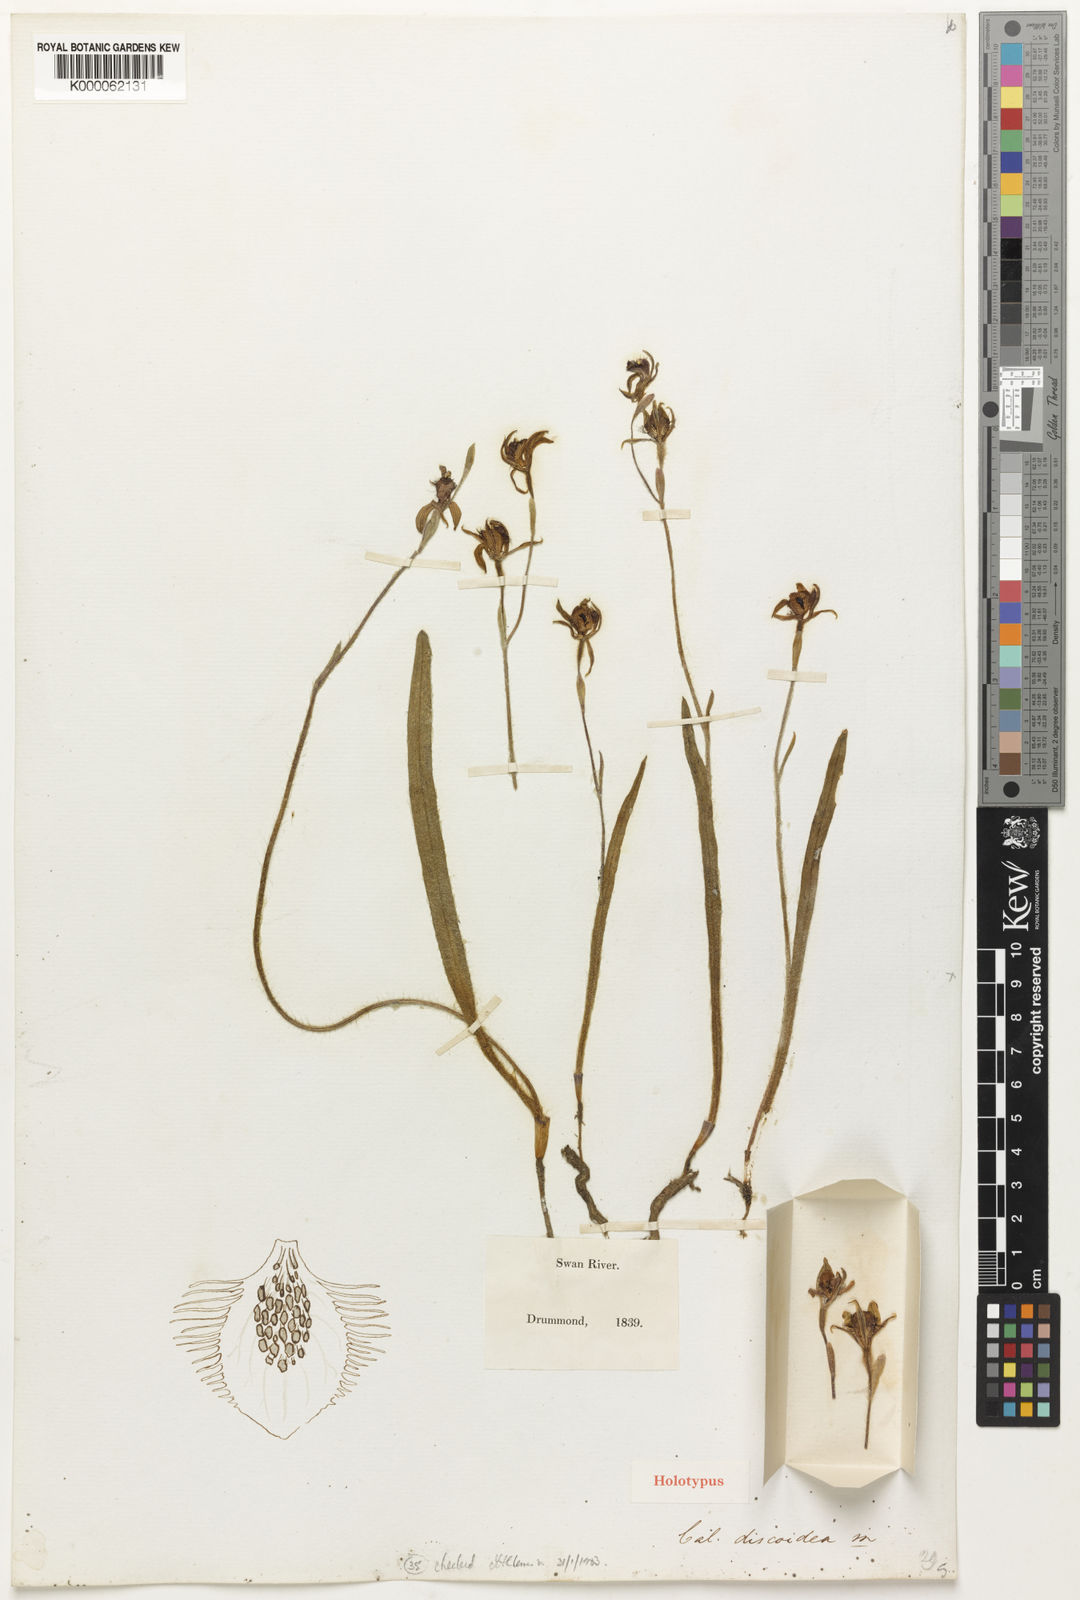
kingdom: Plantae
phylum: Tracheophyta
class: Liliopsida
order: Asparagales
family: Orchidaceae
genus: Caladenia
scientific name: Caladenia discoidea
